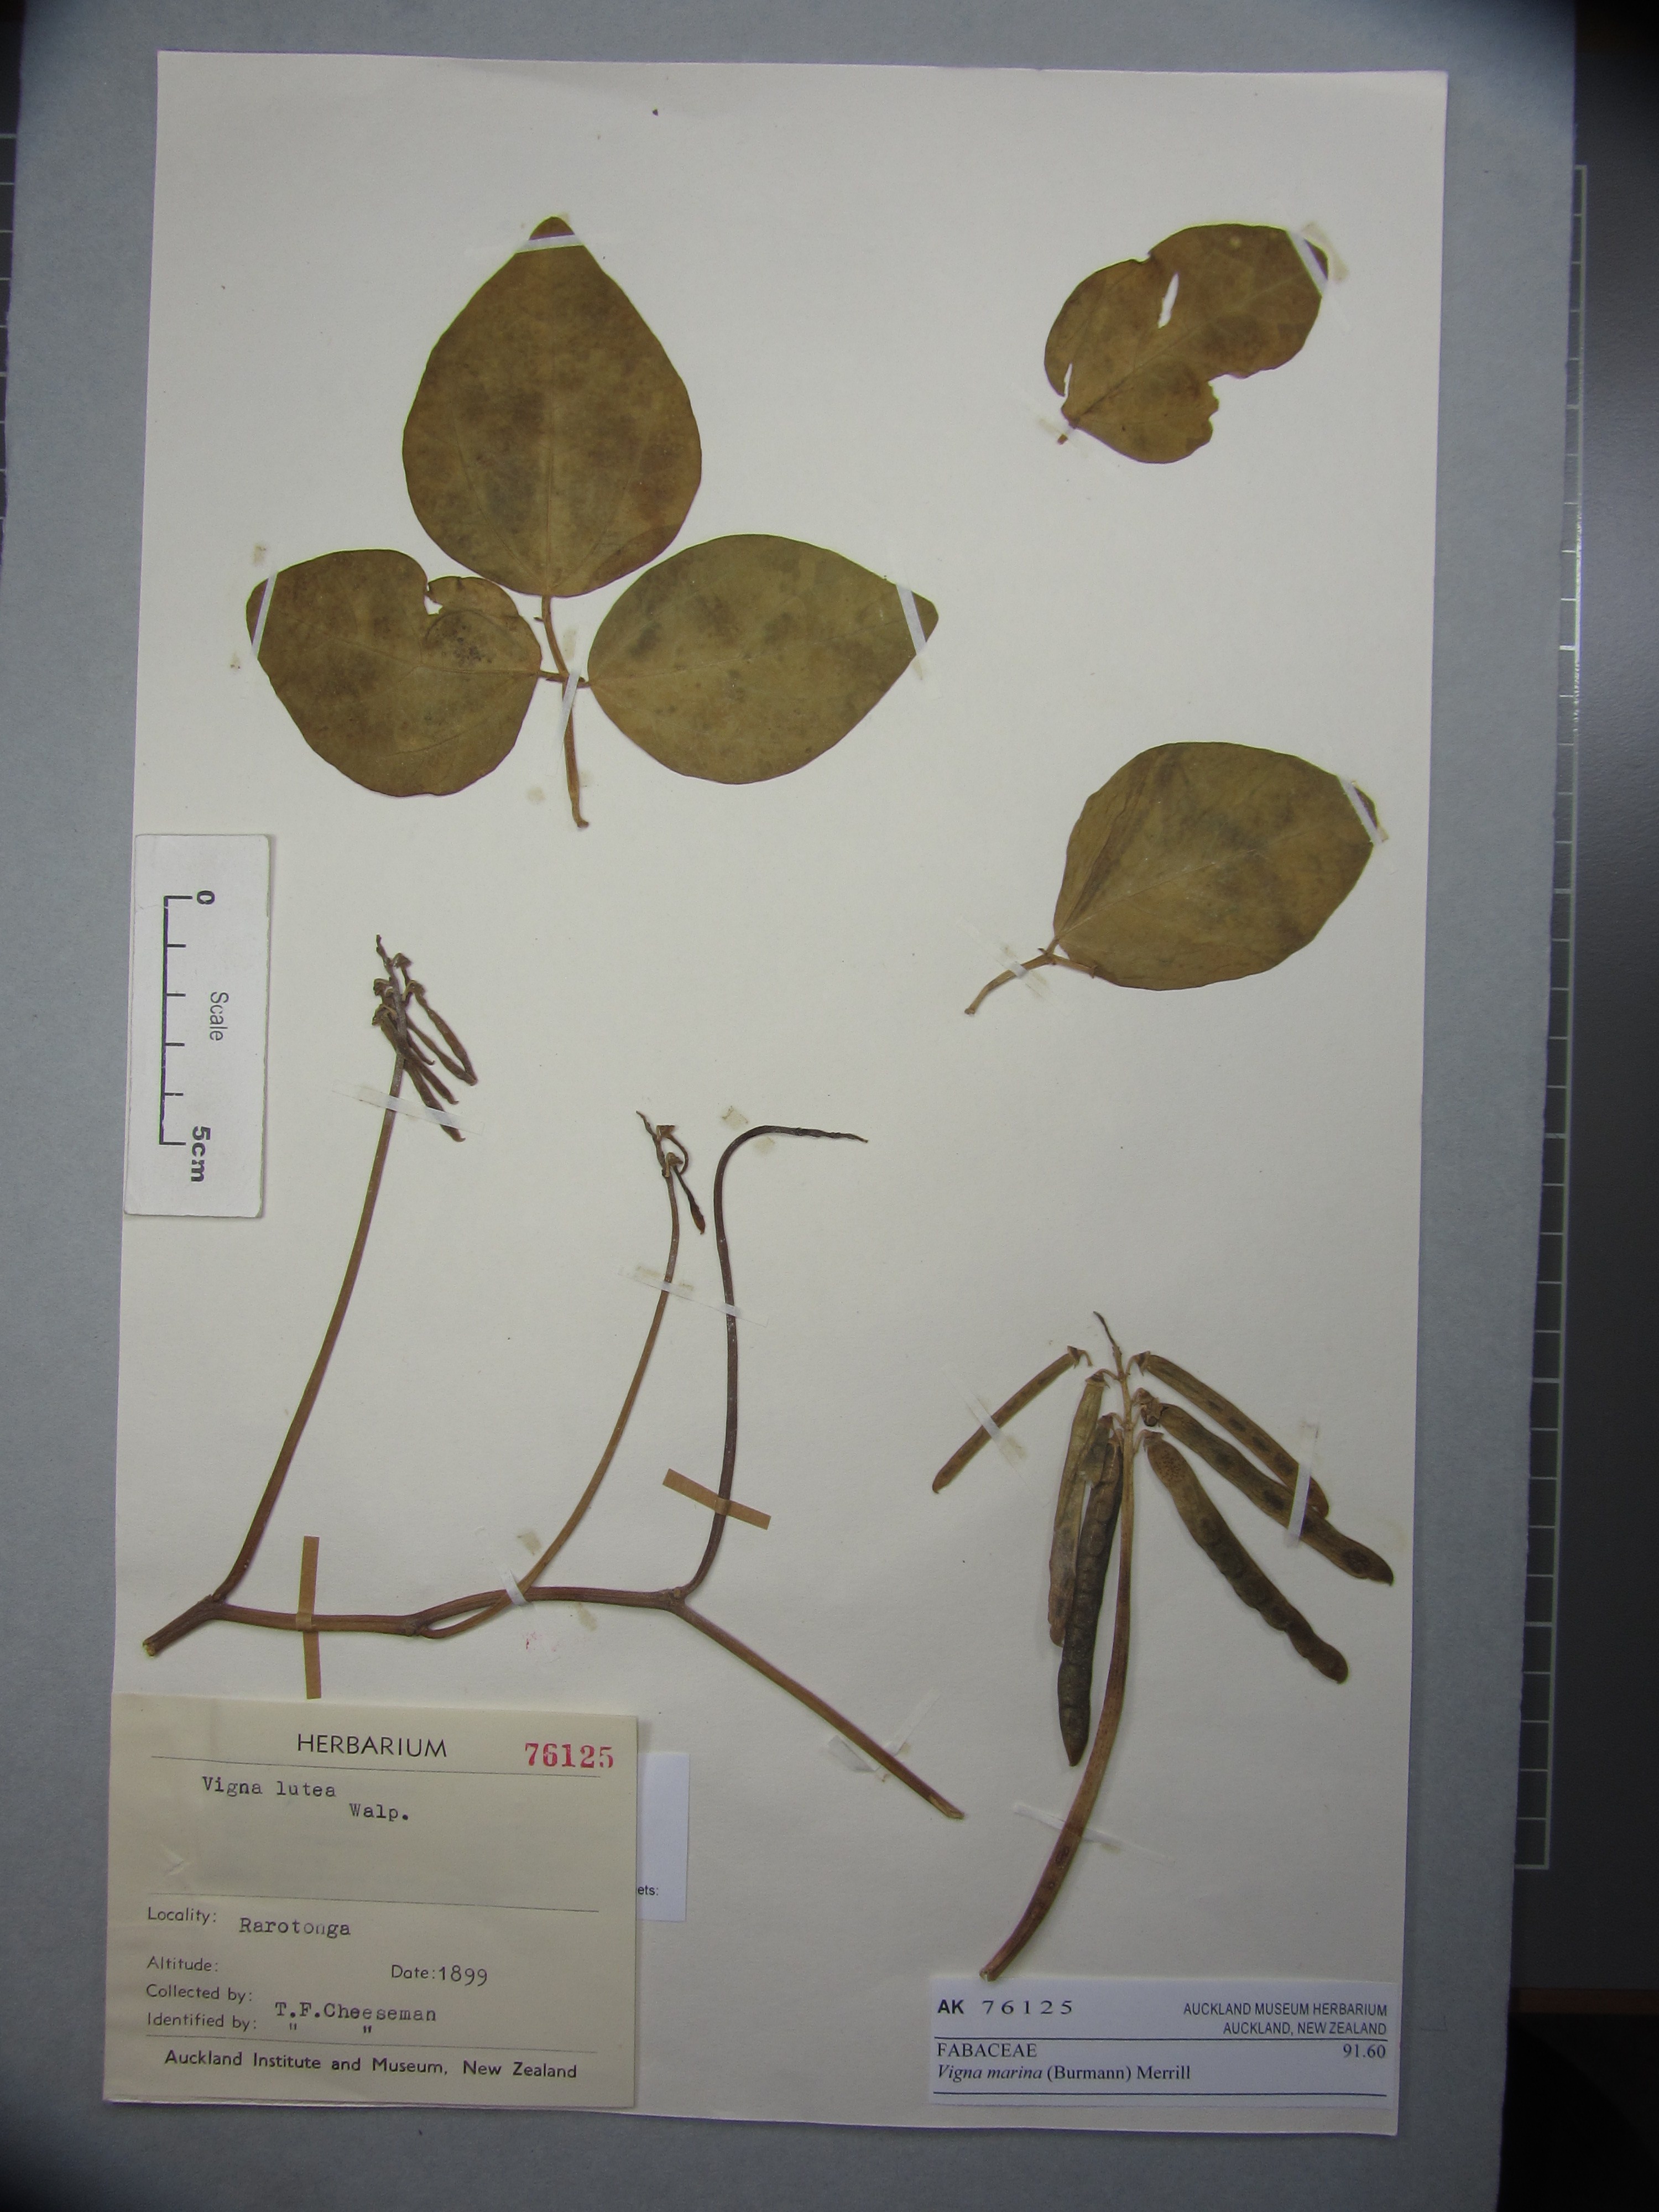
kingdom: Plantae
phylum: Tracheophyta
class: Magnoliopsida
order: Fabales
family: Fabaceae
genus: Vigna
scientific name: Vigna marina
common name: Dune-bean
